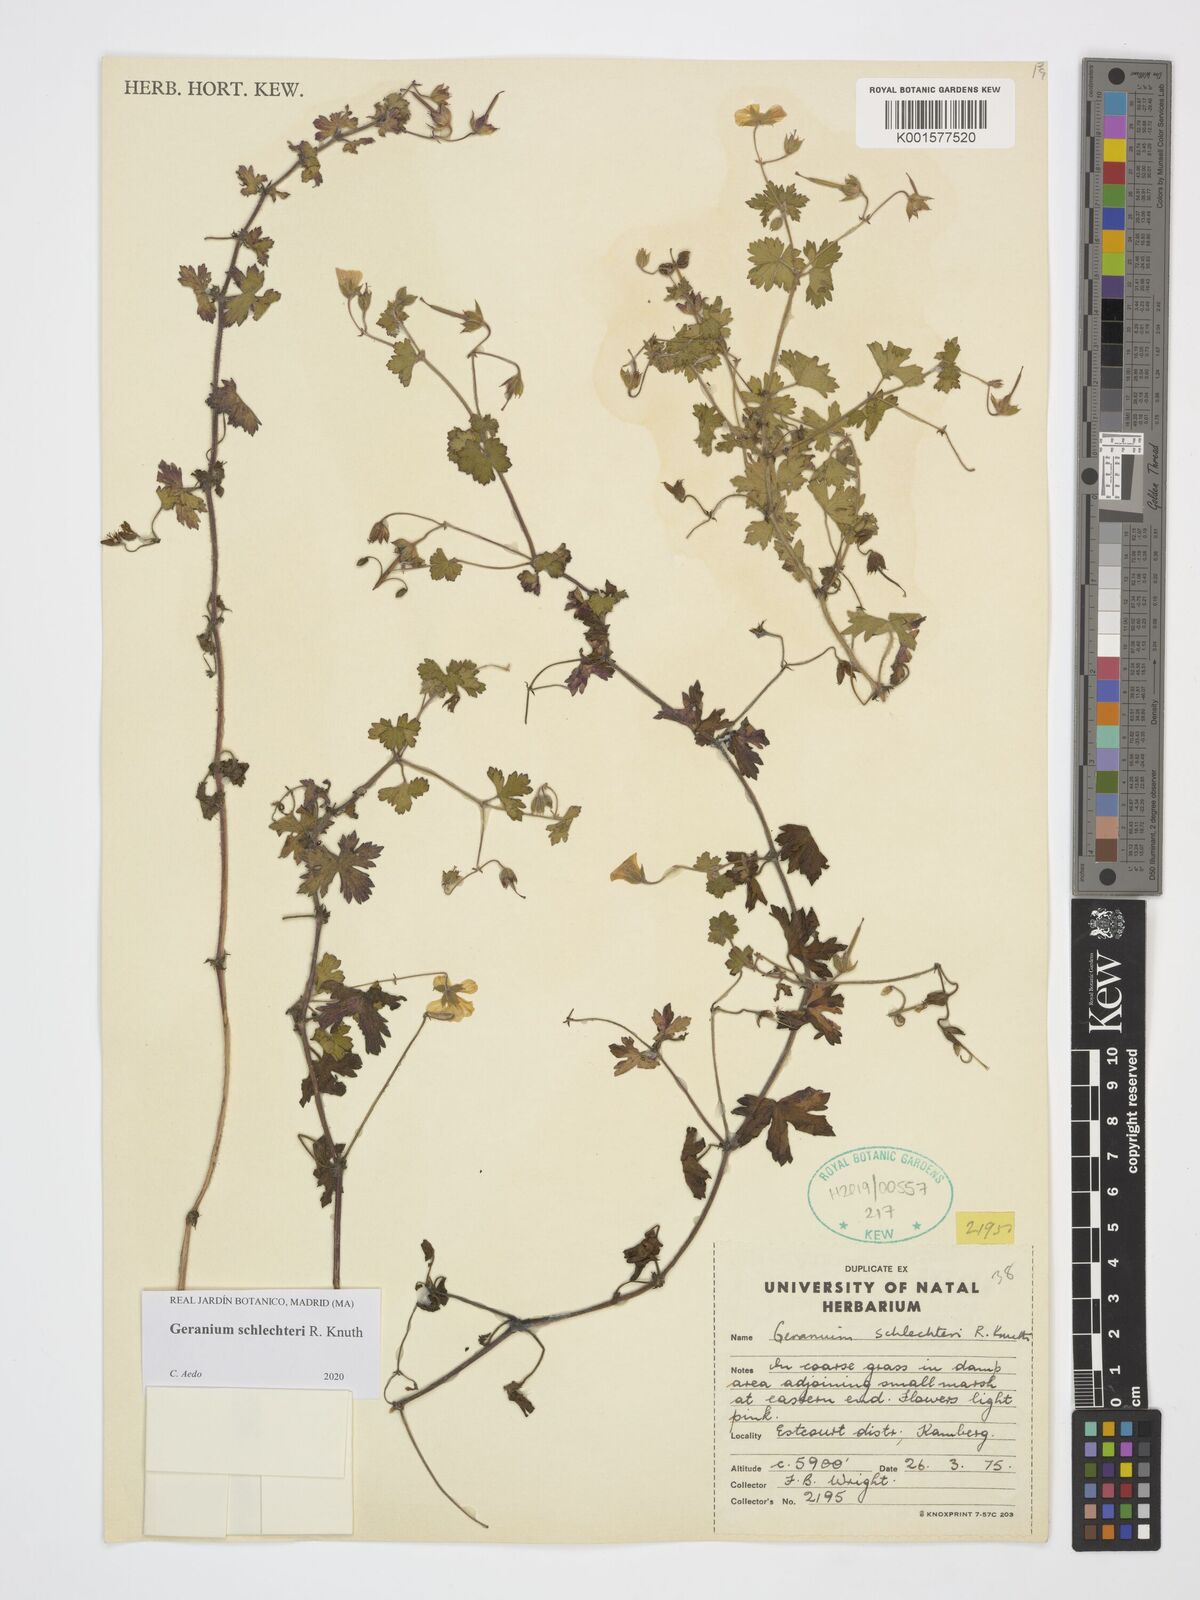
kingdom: Plantae
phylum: Tracheophyta
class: Magnoliopsida
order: Geraniales
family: Geraniaceae
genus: Geranium
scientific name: Geranium schlechteri
